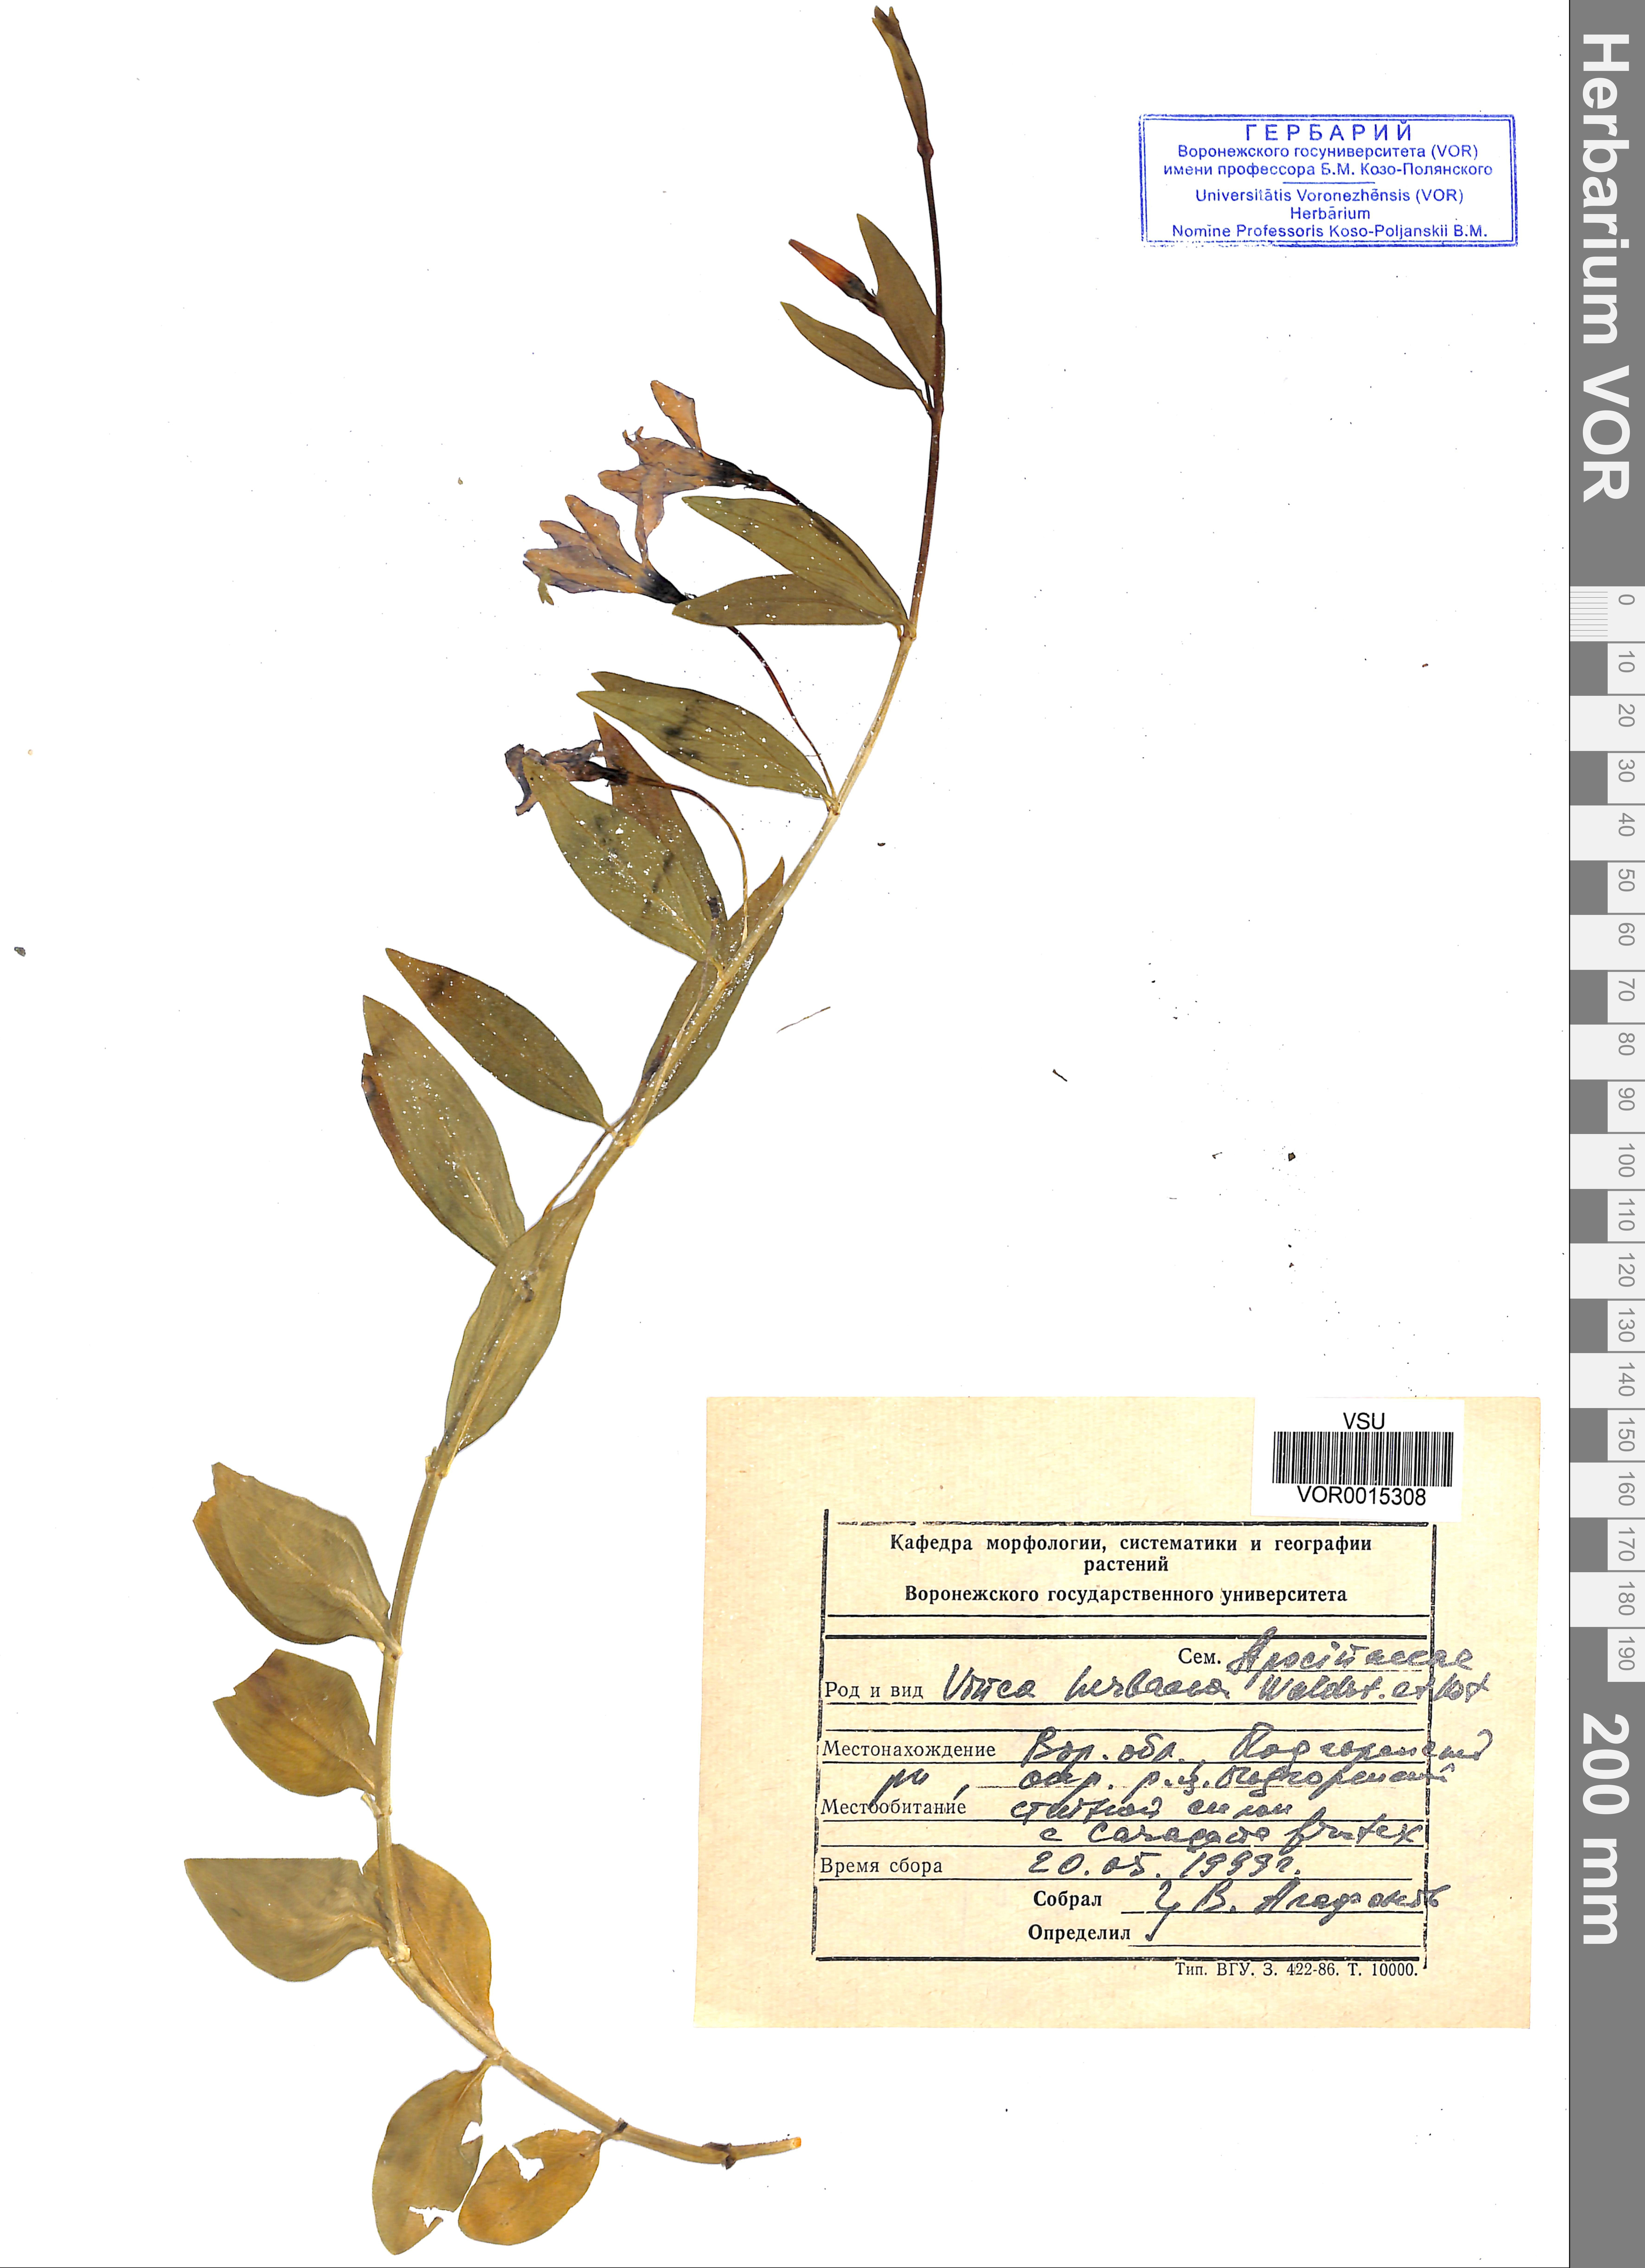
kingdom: Plantae
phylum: Tracheophyta
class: Magnoliopsida
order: Gentianales
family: Apocynaceae
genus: Vinca
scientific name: Vinca herbacea
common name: Herbaceous periwinkle
